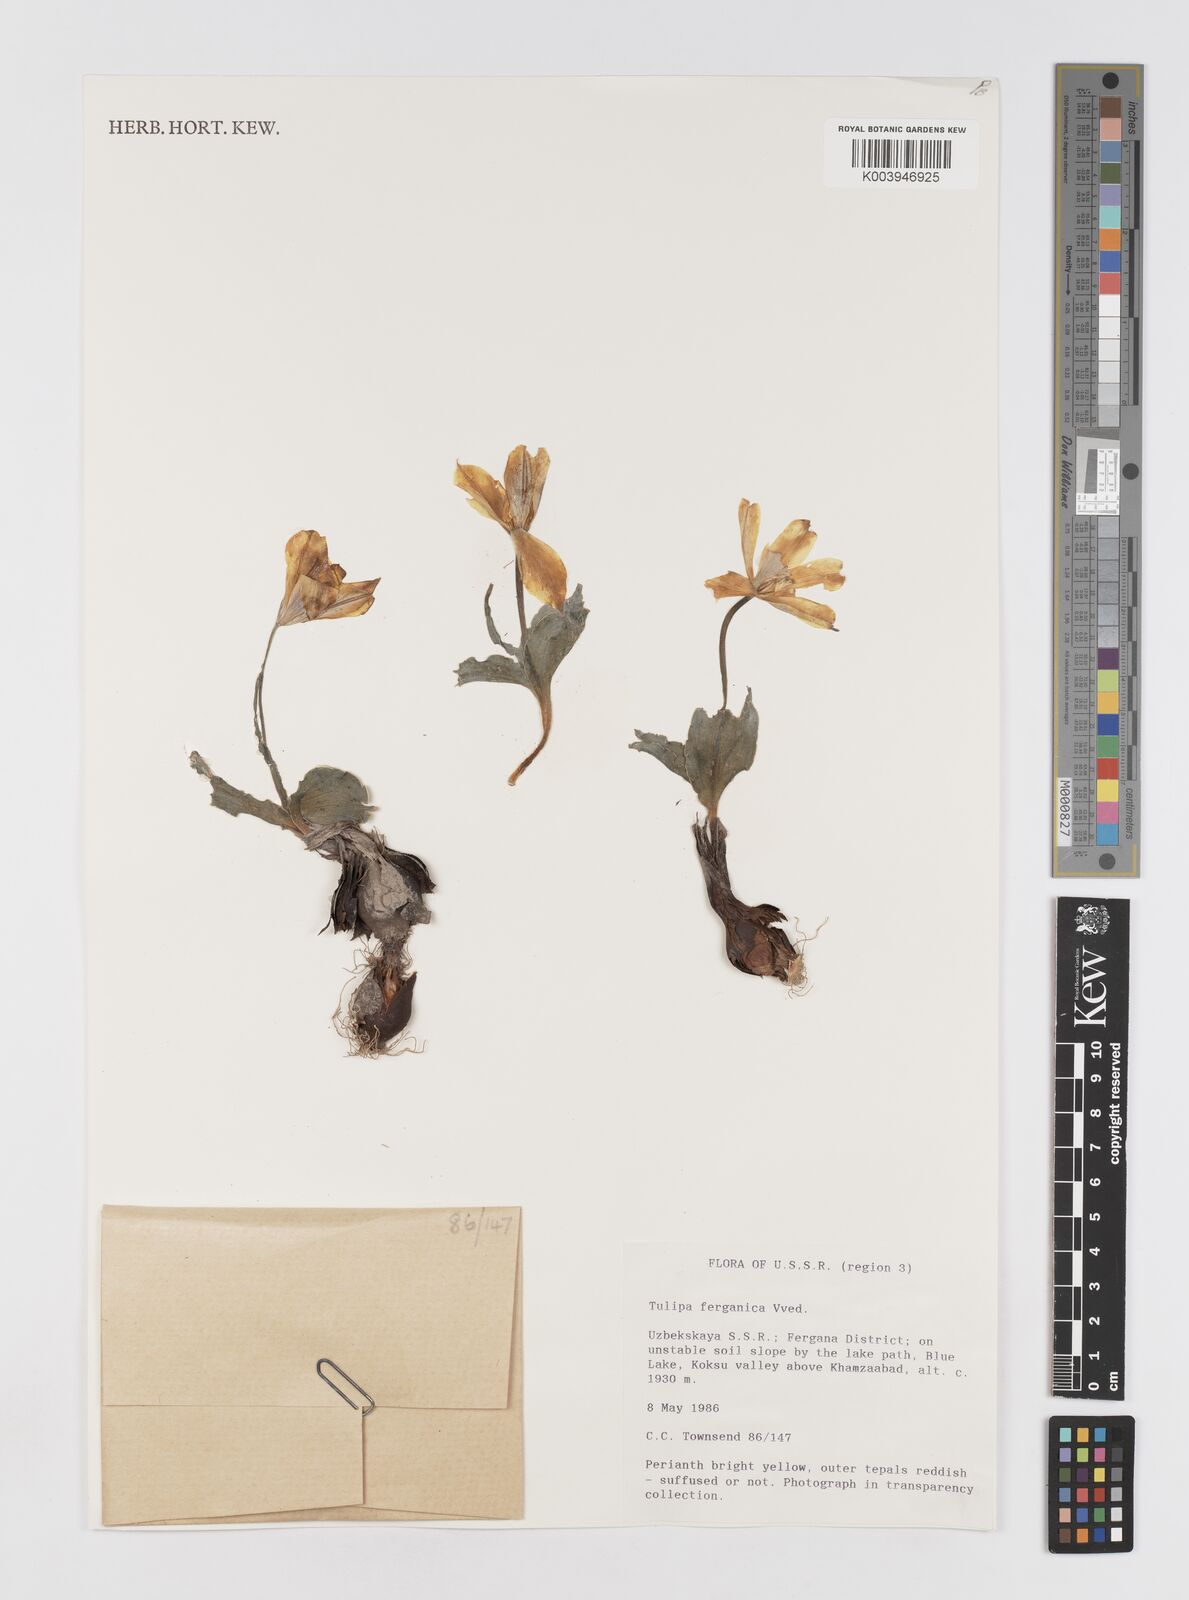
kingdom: Plantae
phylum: Tracheophyta
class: Liliopsida
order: Liliales
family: Liliaceae
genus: Tulipa
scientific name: Tulipa ferganica
